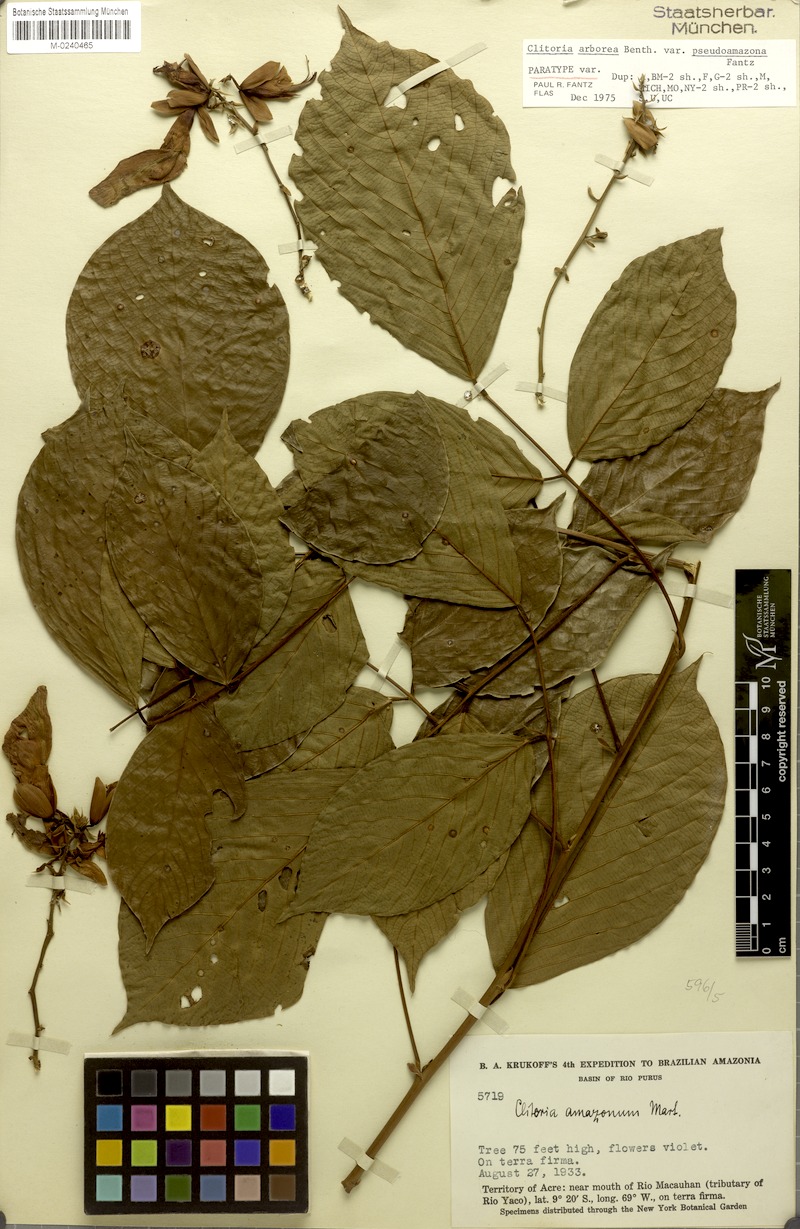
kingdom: Plantae
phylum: Tracheophyta
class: Magnoliopsida
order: Fabales
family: Fabaceae
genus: Clitoria
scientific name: Clitoria arborea
